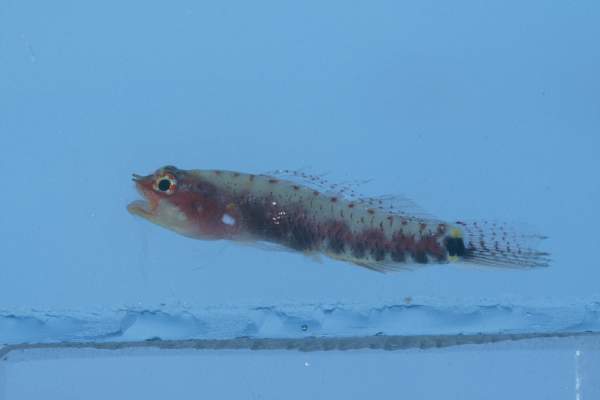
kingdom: Animalia
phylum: Chordata
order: Perciformes
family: Gobiidae
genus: Eviota
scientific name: Eviota zebrina
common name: Five-bar pygmy-goby
